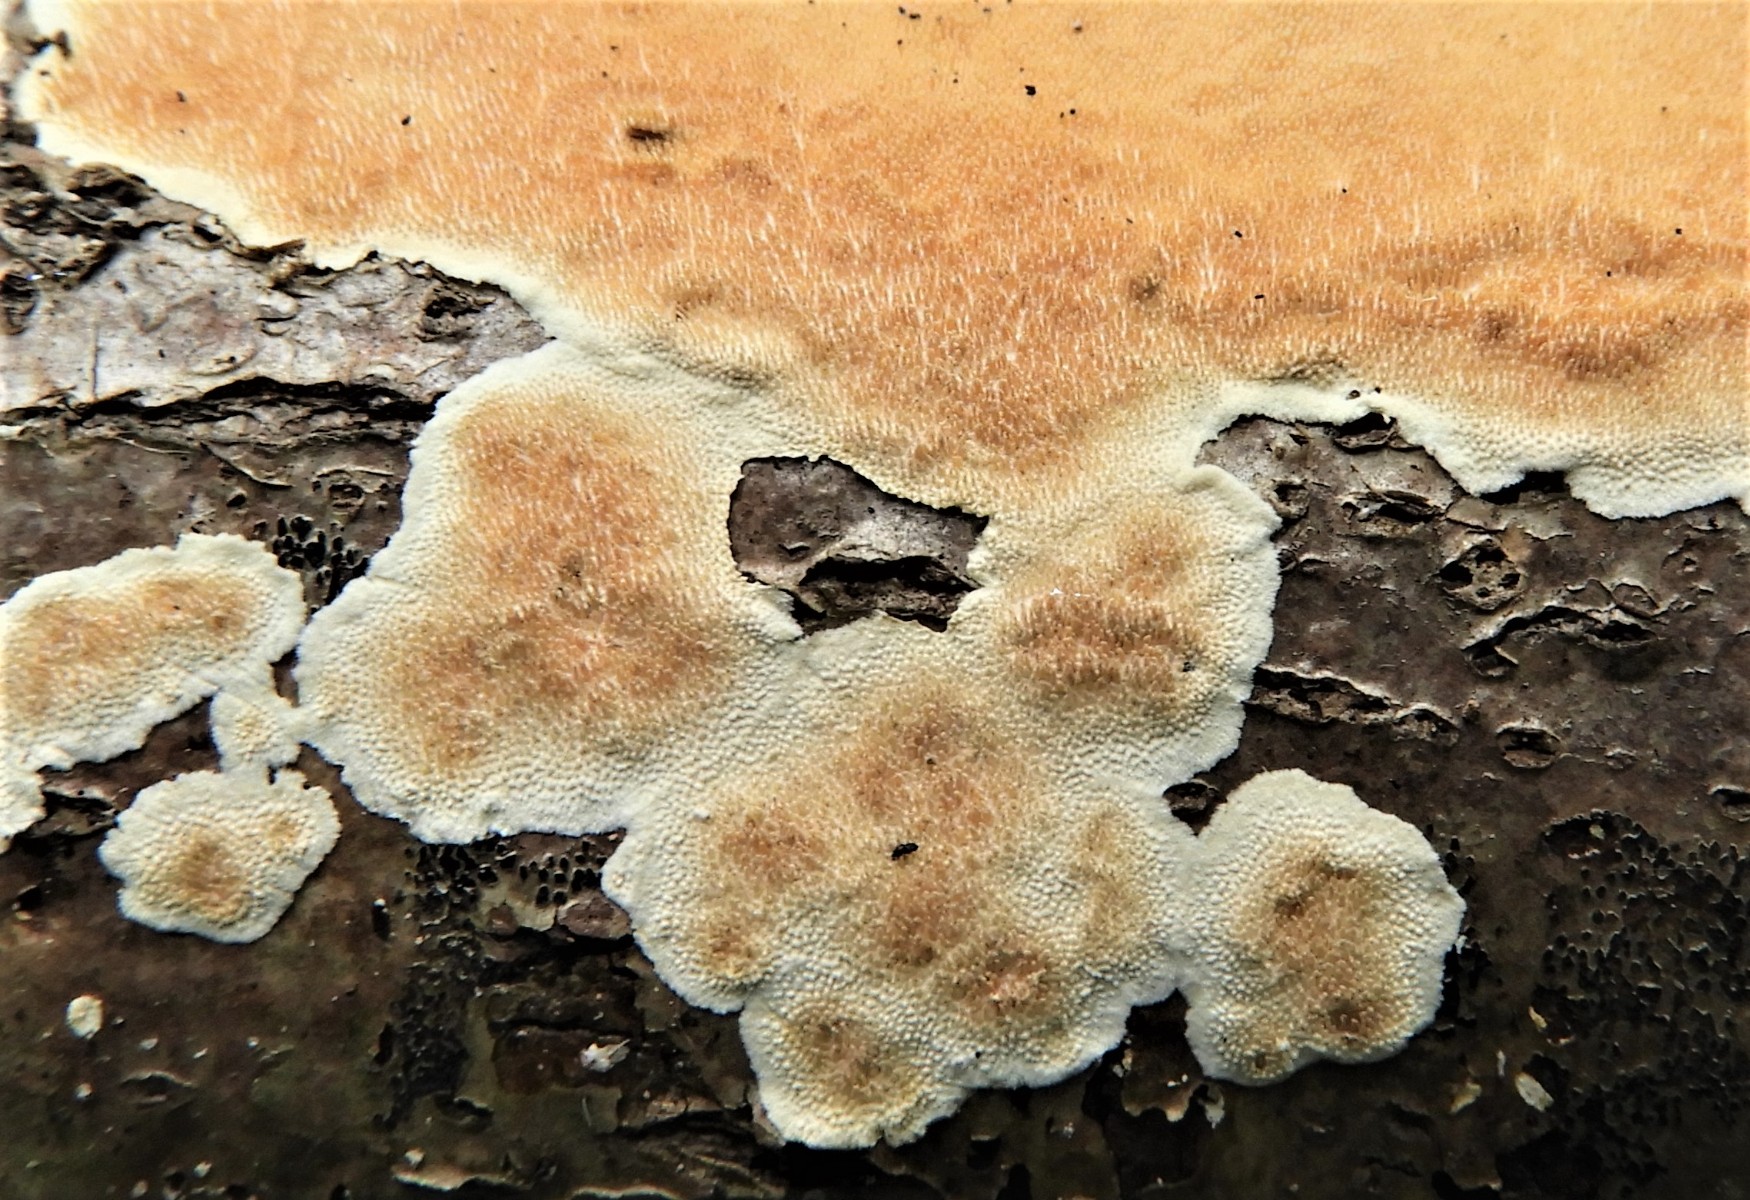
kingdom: Fungi
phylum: Basidiomycota
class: Agaricomycetes
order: Polyporales
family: Steccherinaceae
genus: Steccherinum
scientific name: Steccherinum ochraceum
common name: almindelig skønpig
